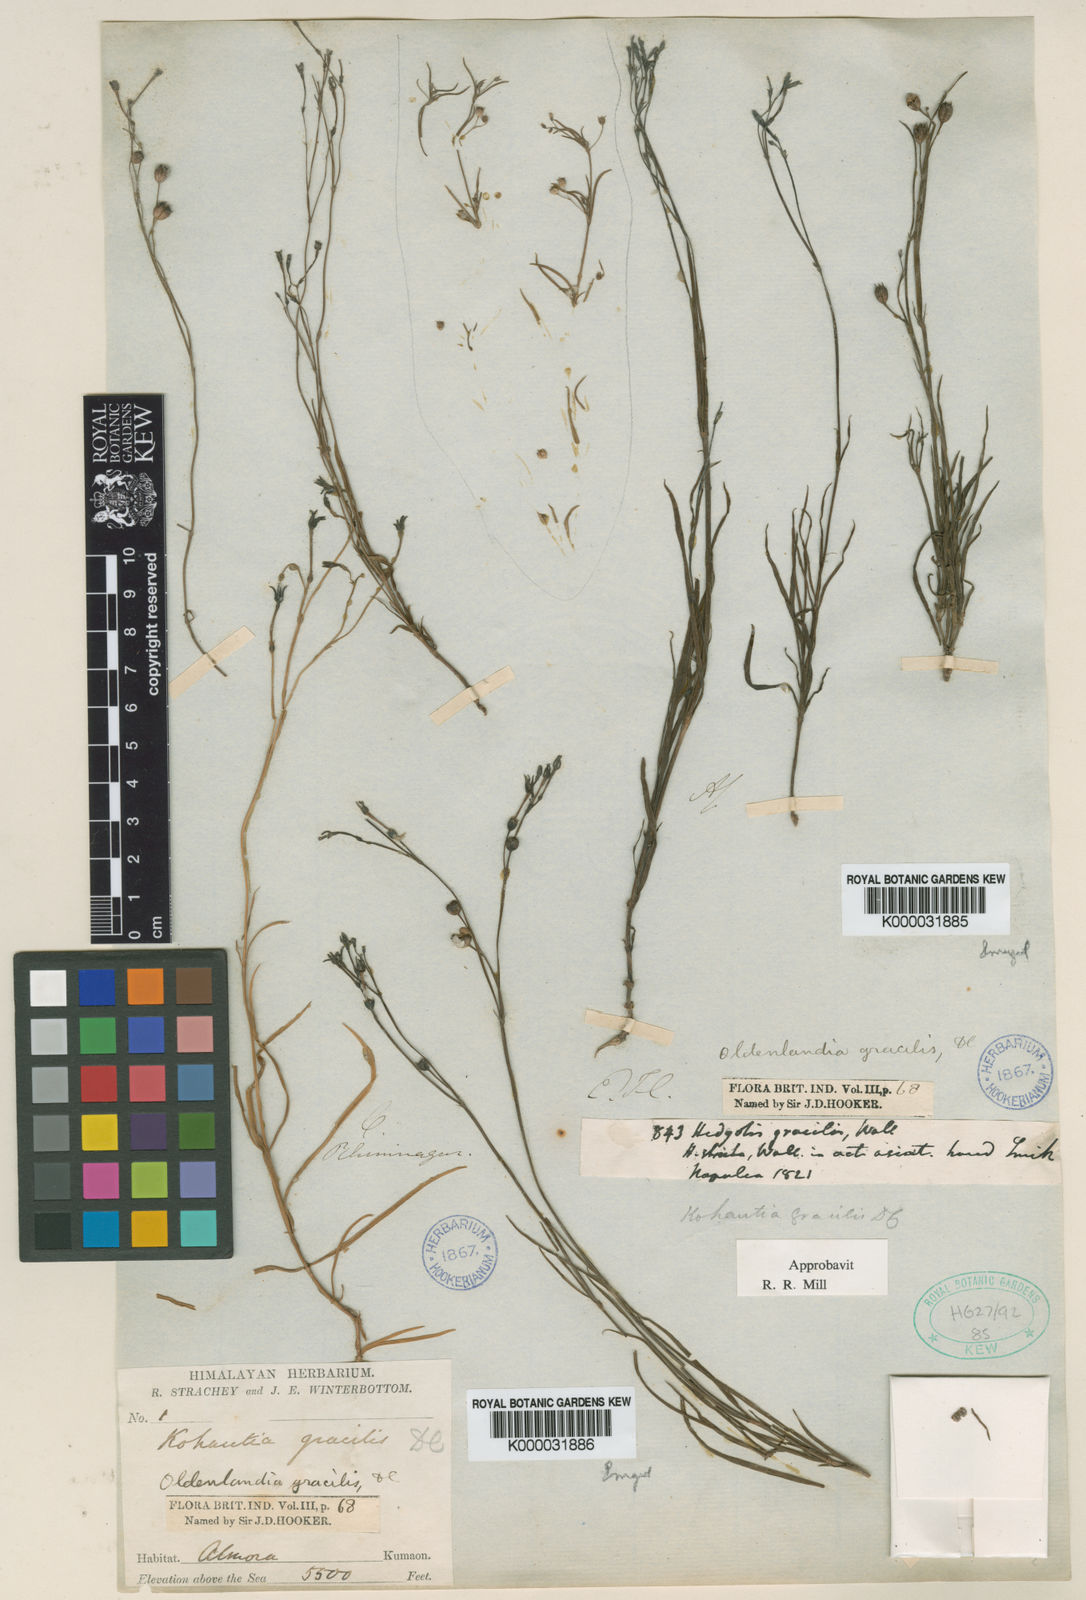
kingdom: Plantae
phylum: Tracheophyta
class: Magnoliopsida
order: Gentianales
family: Rubiaceae
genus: Kohautia
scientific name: Kohautia gracilis
